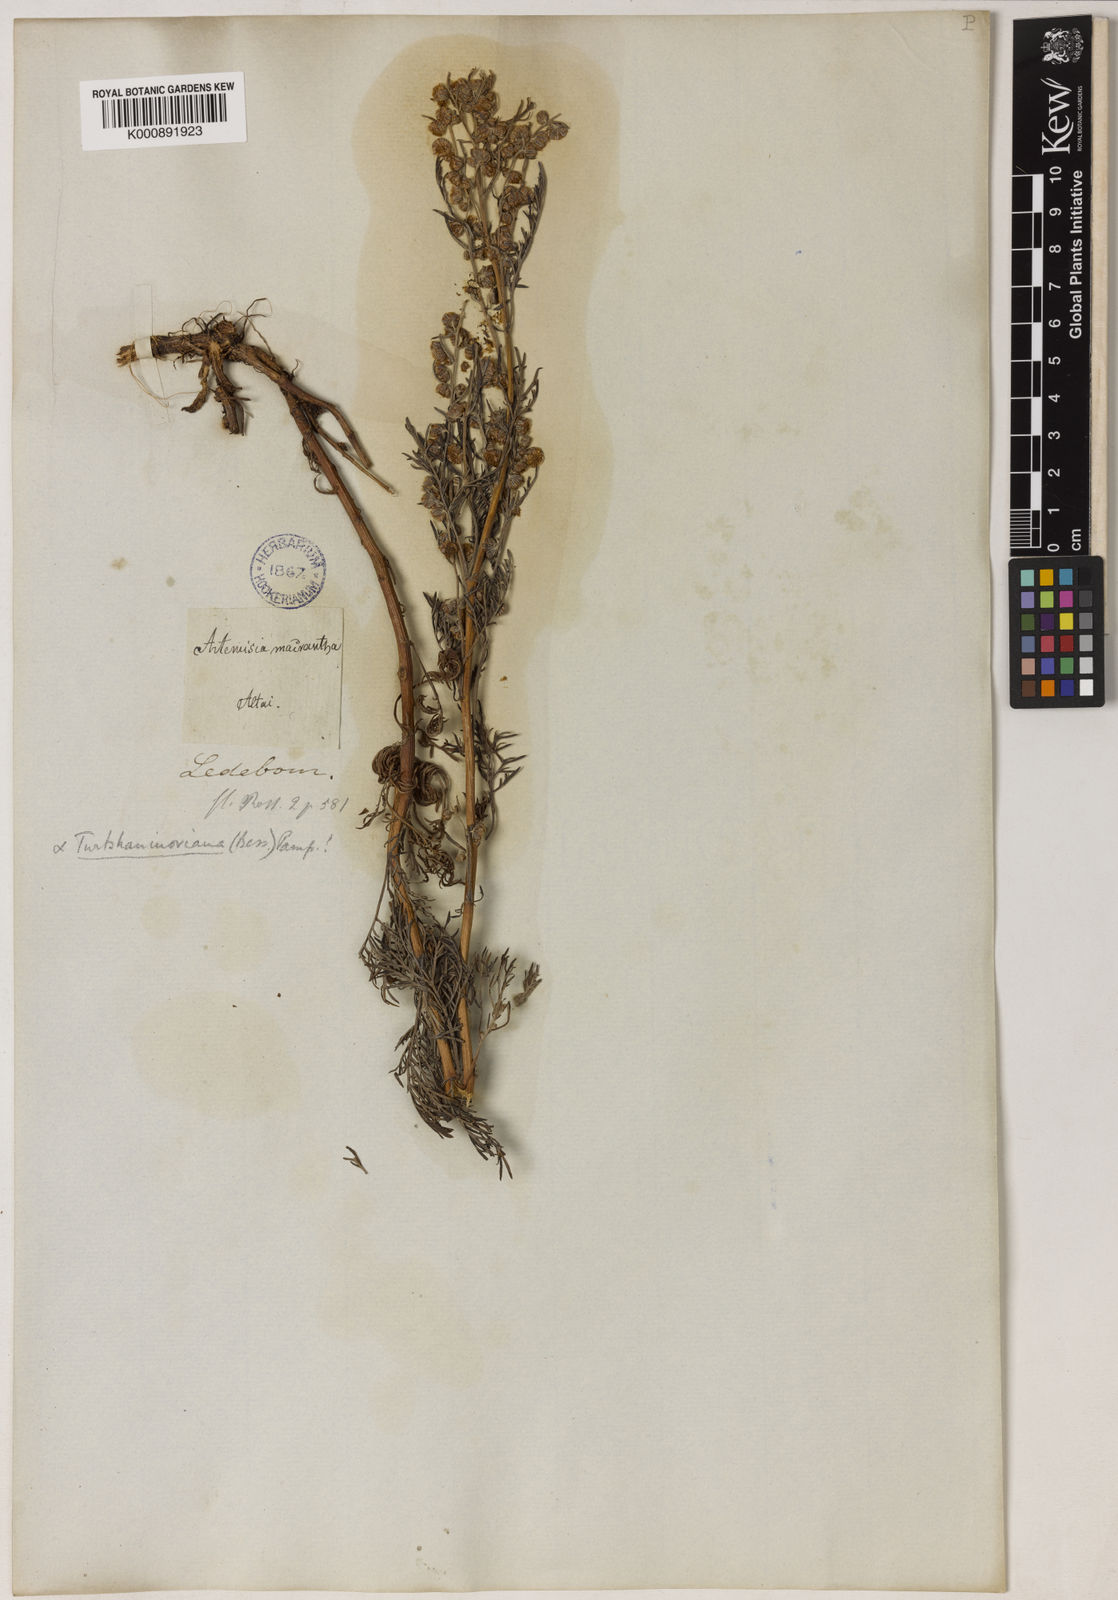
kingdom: Plantae
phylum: Tracheophyta
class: Magnoliopsida
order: Asterales
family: Asteraceae
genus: Artemisia
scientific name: Artemisia macrantha
